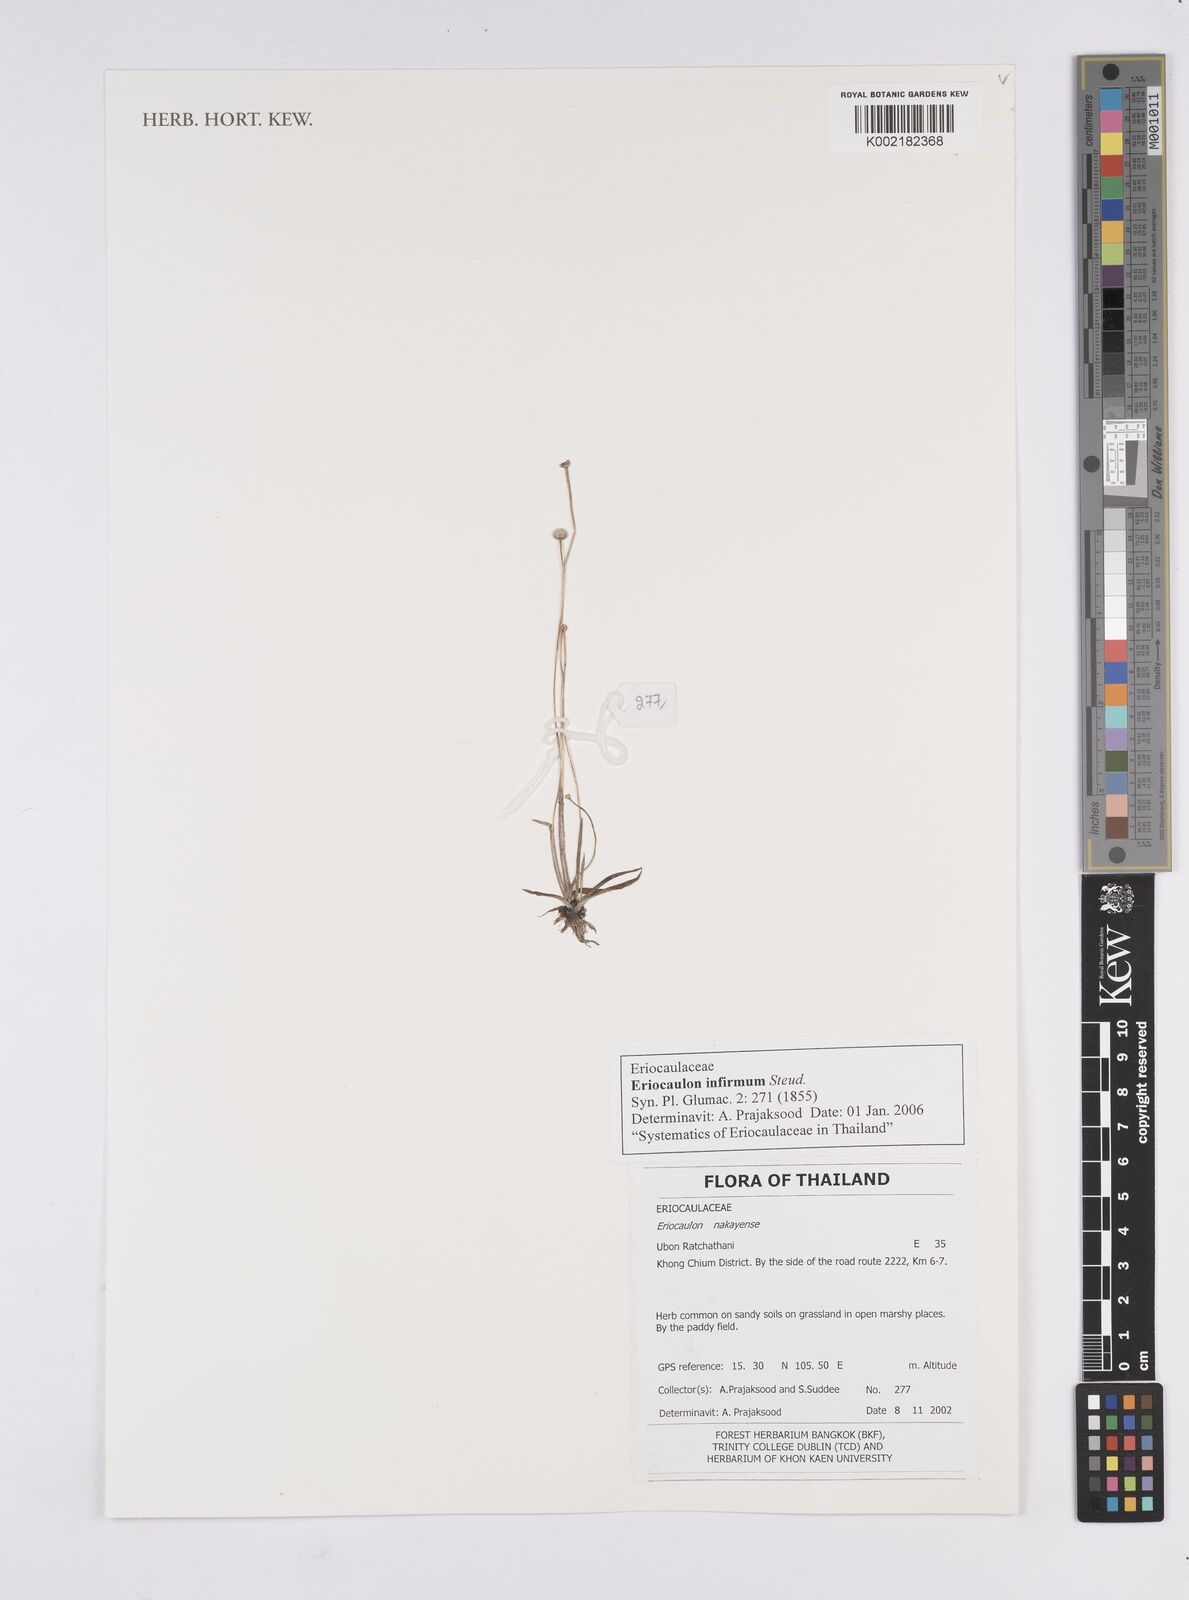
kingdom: Plantae
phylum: Tracheophyta
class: Liliopsida
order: Poales
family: Eriocaulaceae
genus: Eriocaulon
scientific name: Eriocaulon infirmum
